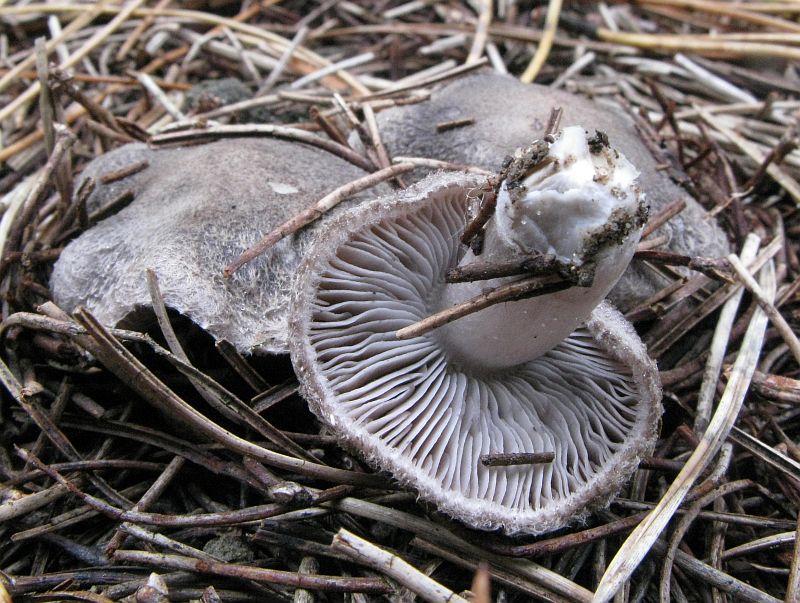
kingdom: Fungi
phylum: Basidiomycota
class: Agaricomycetes
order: Agaricales
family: Tricholomataceae
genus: Tricholoma
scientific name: Tricholoma terreum
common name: jordfarvet ridderhat
